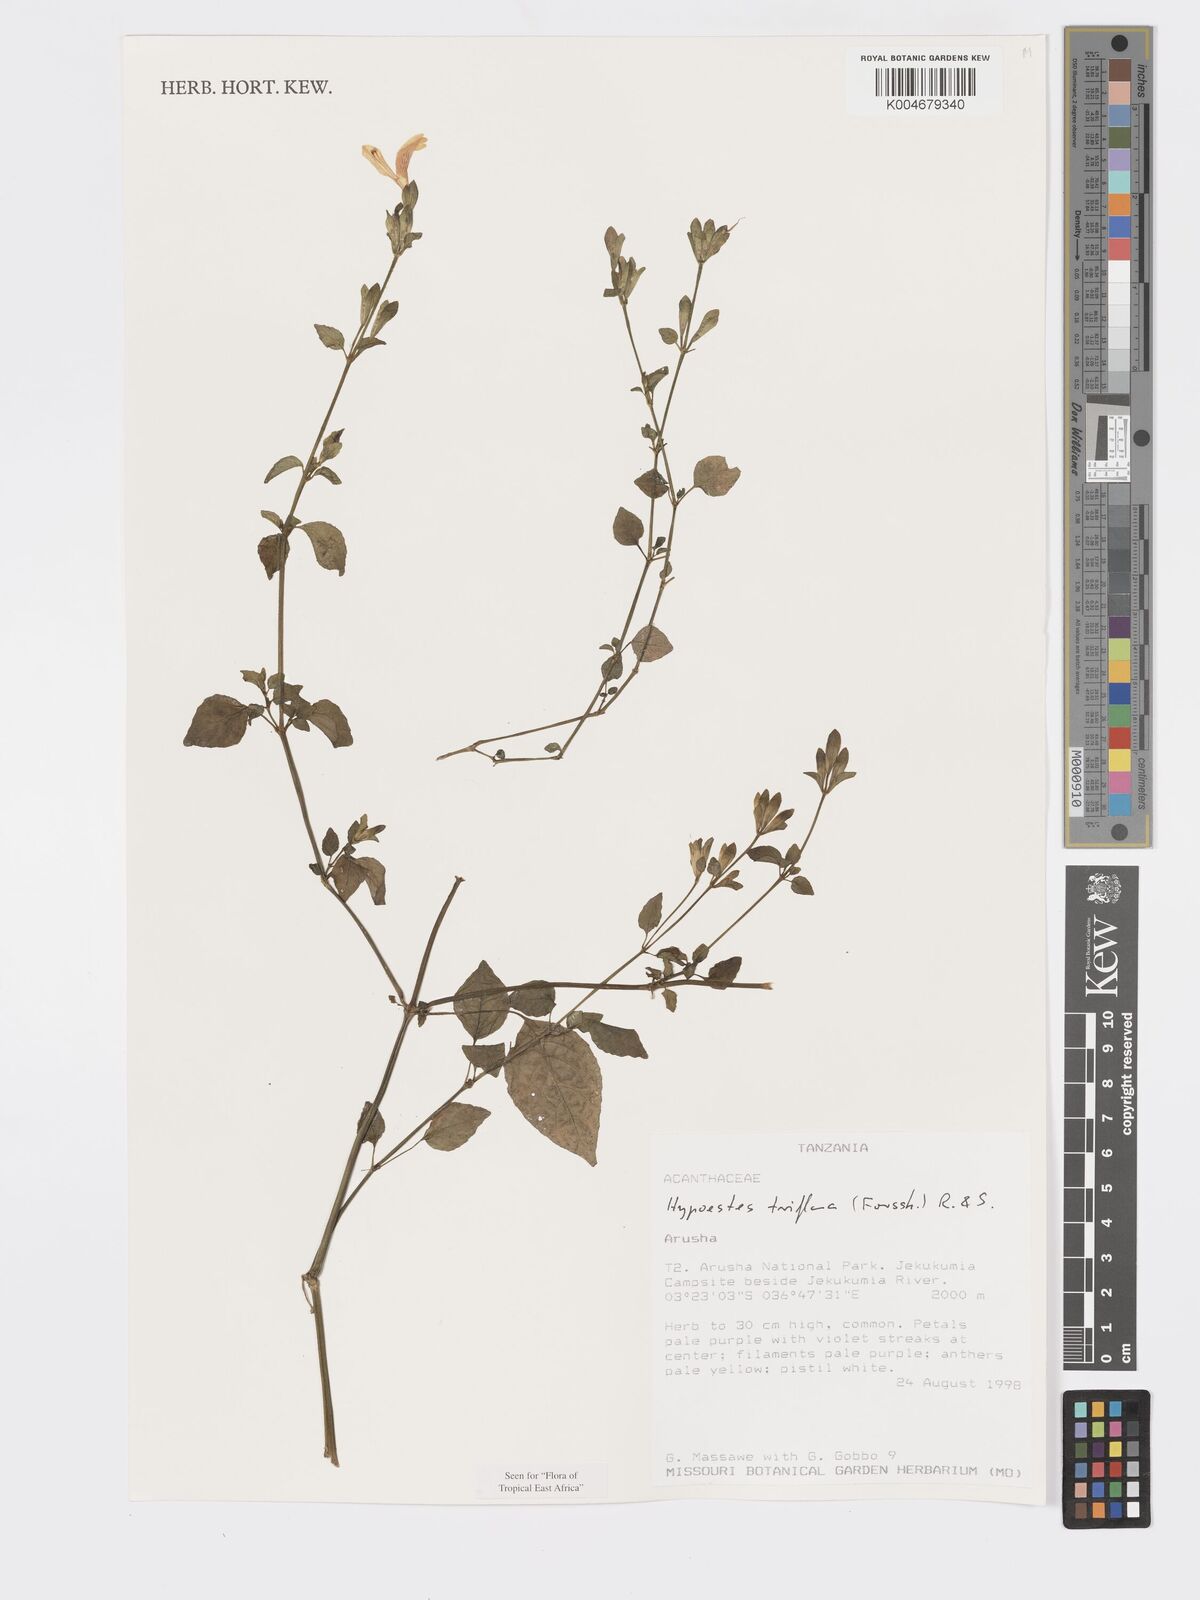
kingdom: Plantae
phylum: Tracheophyta
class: Magnoliopsida
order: Lamiales
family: Acanthaceae
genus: Hypoestes
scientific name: Hypoestes triflora
